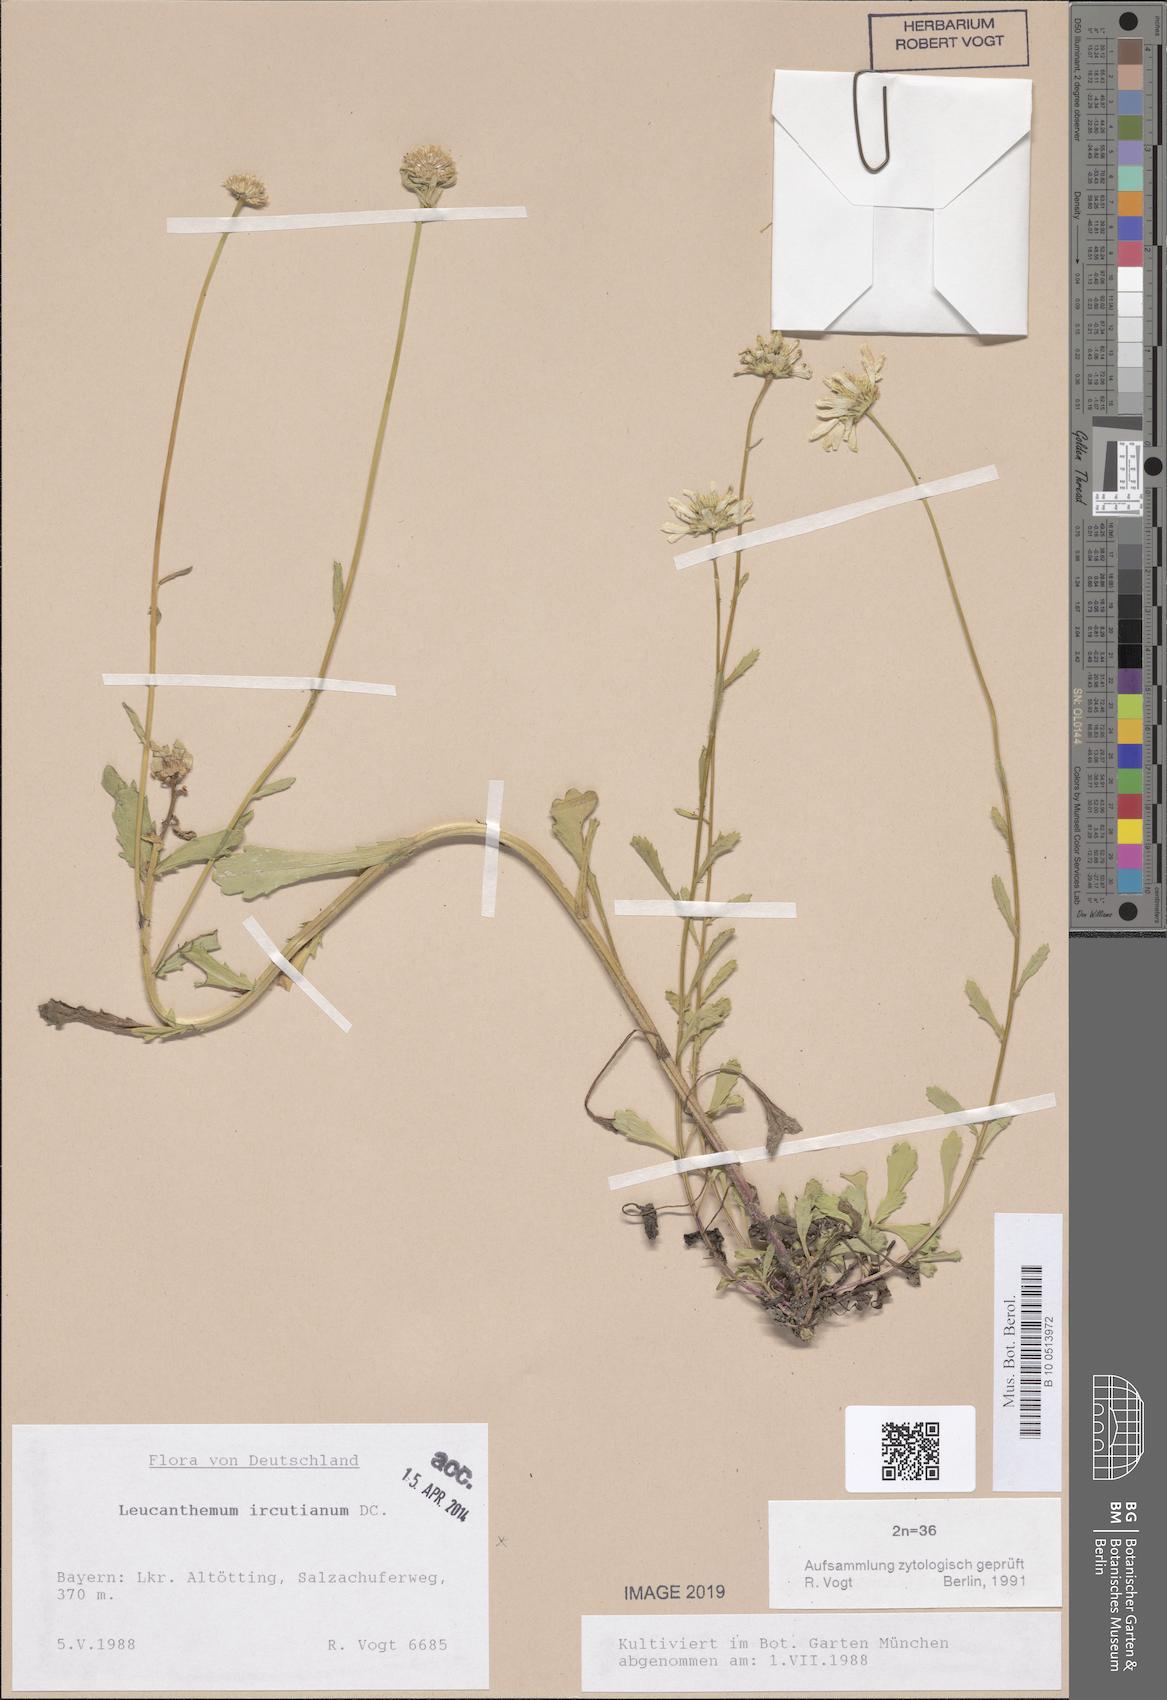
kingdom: Plantae
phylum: Tracheophyta
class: Magnoliopsida
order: Asterales
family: Asteraceae
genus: Leucanthemum
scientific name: Leucanthemum ircutianum
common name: Daisy
